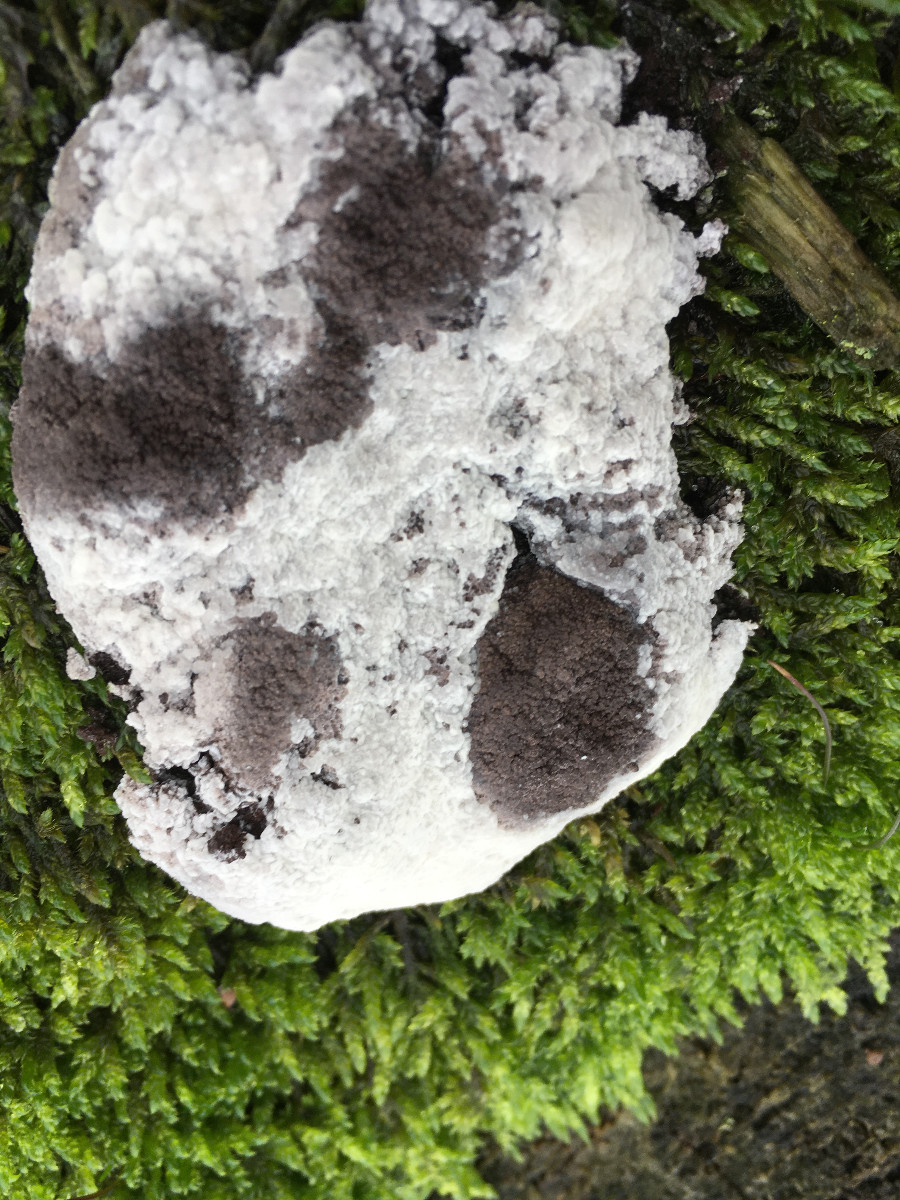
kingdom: Fungi
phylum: Ascomycota
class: Sordariomycetes
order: Hypocreales
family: Bionectriaceae
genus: Nectriopsis
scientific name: Nectriopsis
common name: snyltespind
